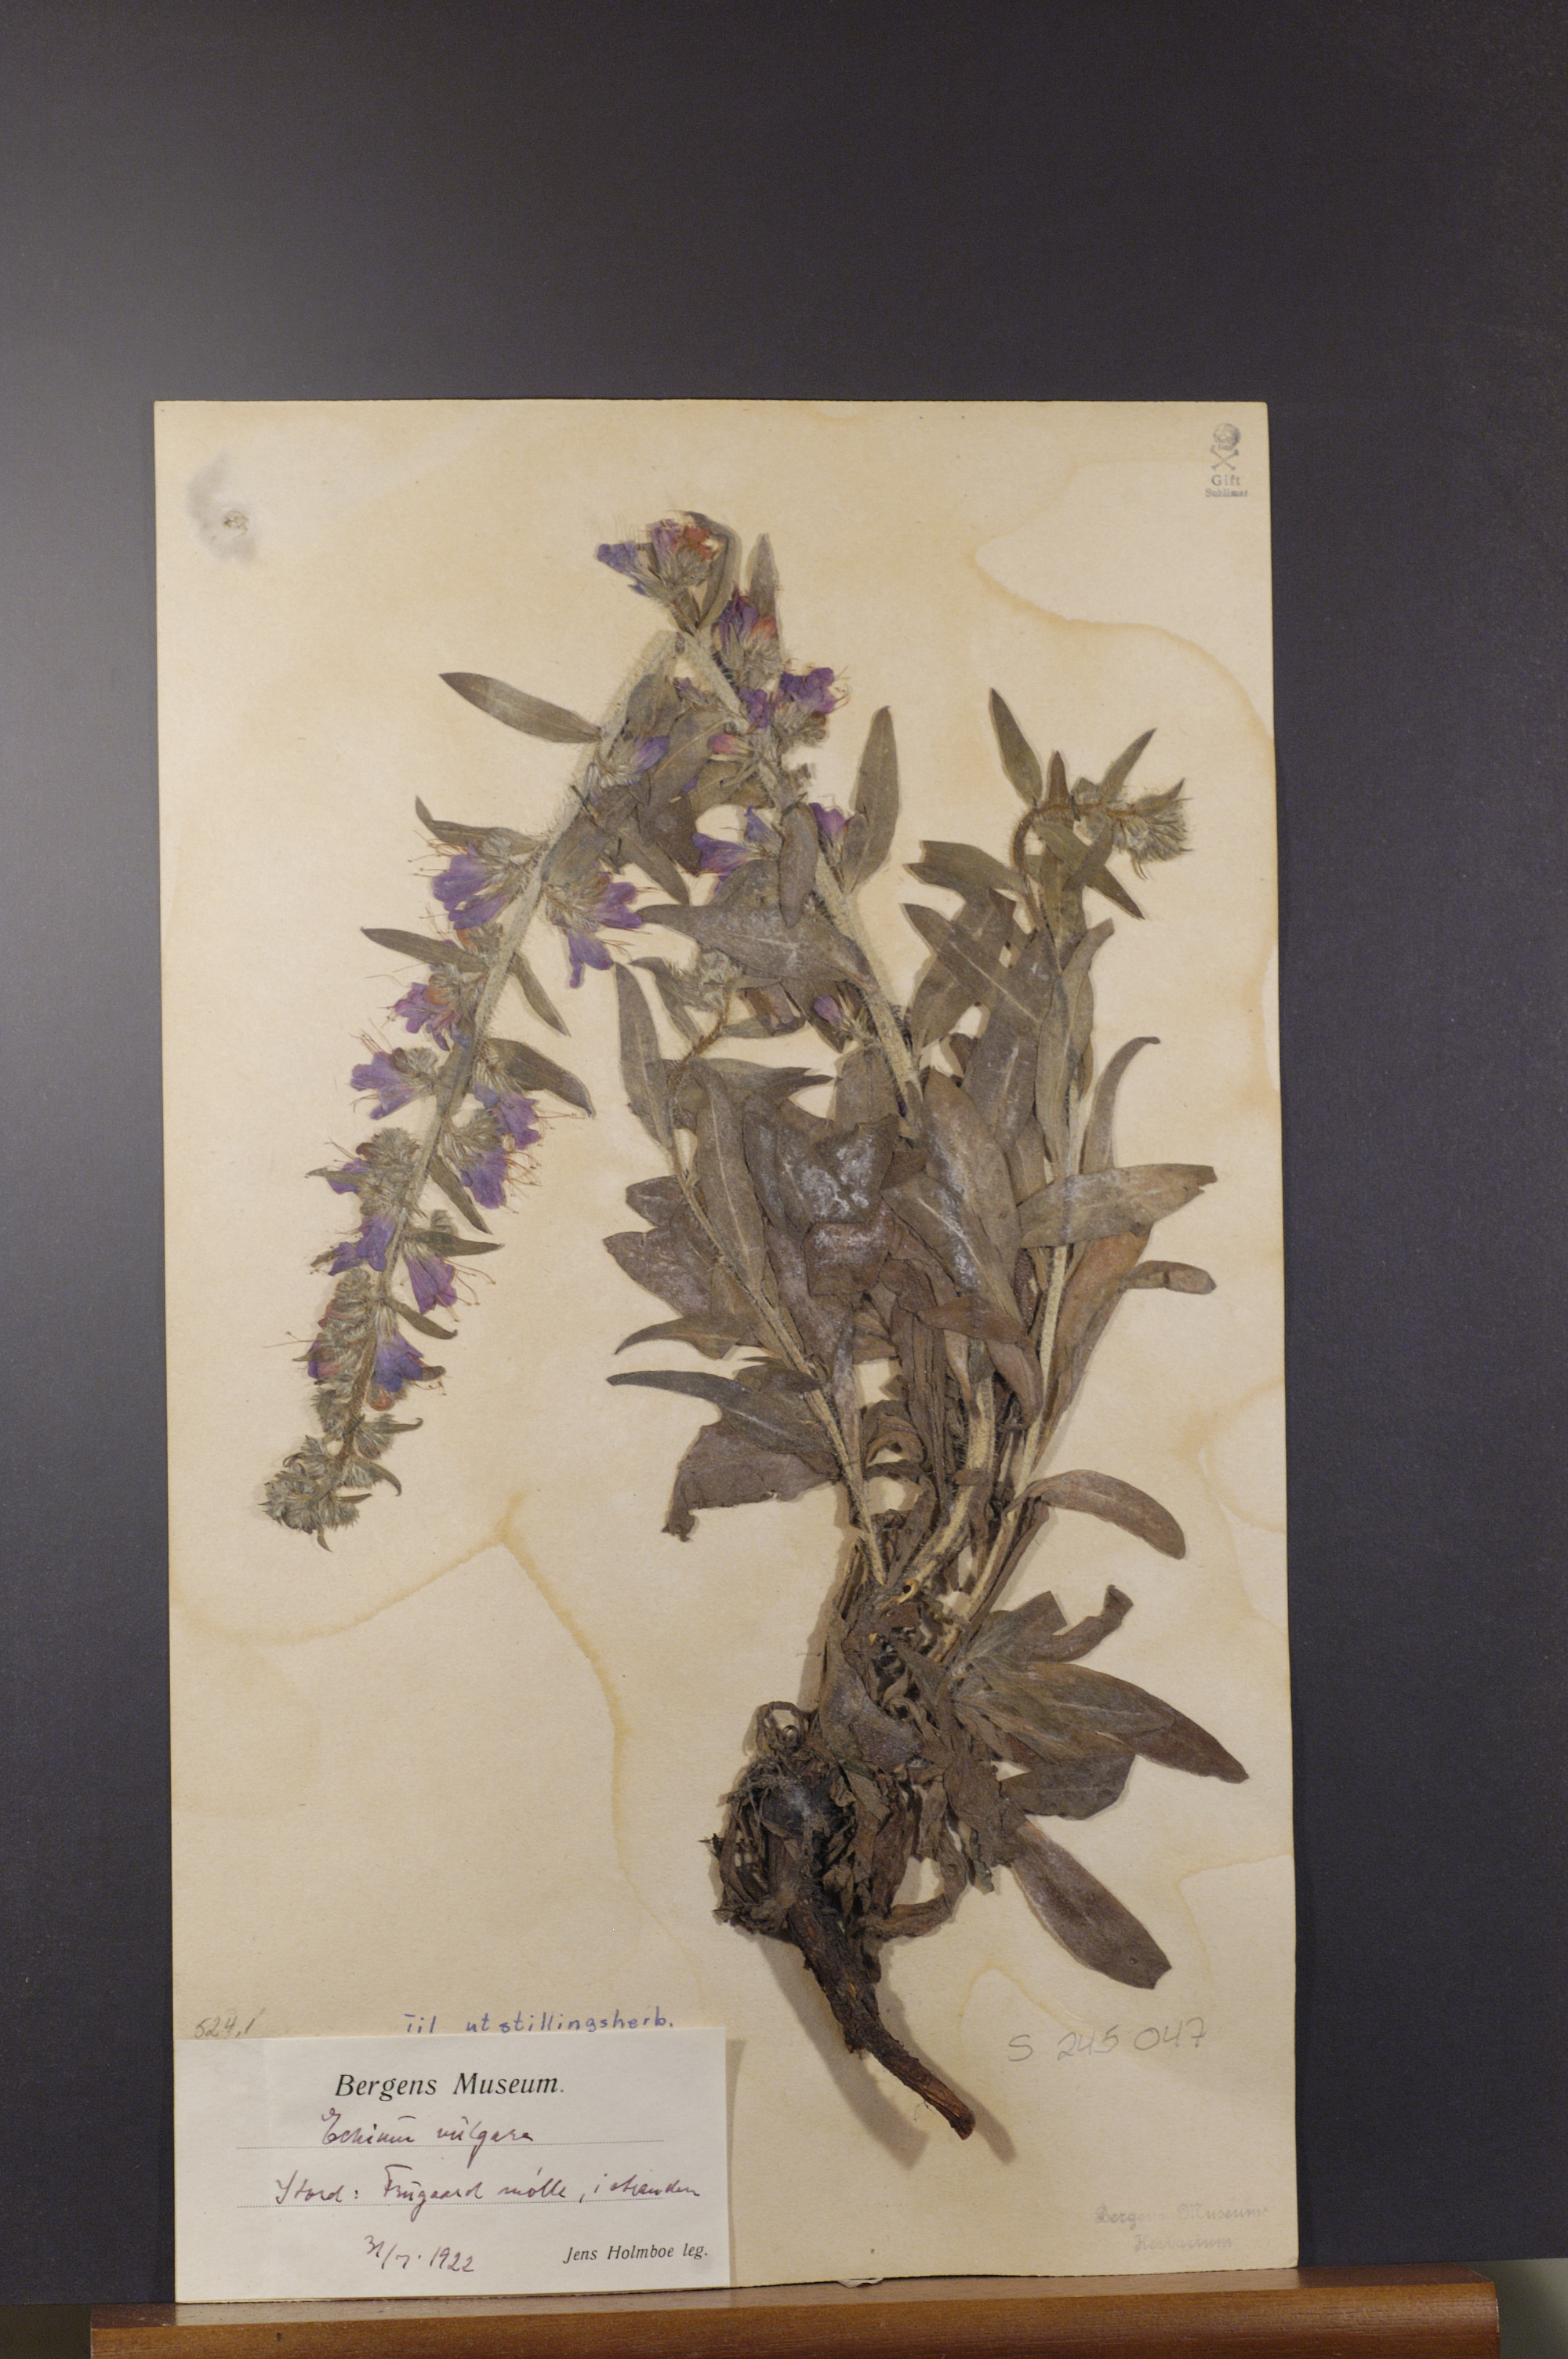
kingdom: Plantae
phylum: Tracheophyta
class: Magnoliopsida
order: Boraginales
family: Boraginaceae
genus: Echium
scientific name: Echium vulgare
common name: Common viper's bugloss
